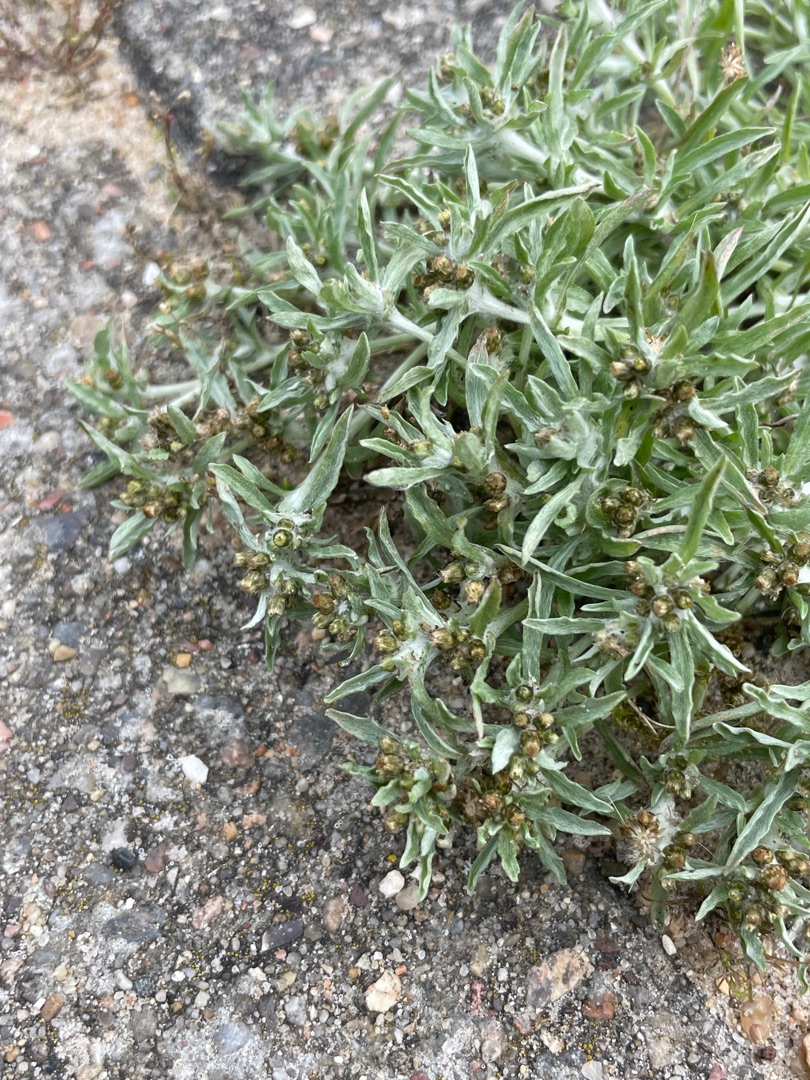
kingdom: Plantae
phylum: Tracheophyta
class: Magnoliopsida
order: Asterales
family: Asteraceae
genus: Gnaphalium
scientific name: Gnaphalium uliginosum
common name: Sump-evighedsblomst
